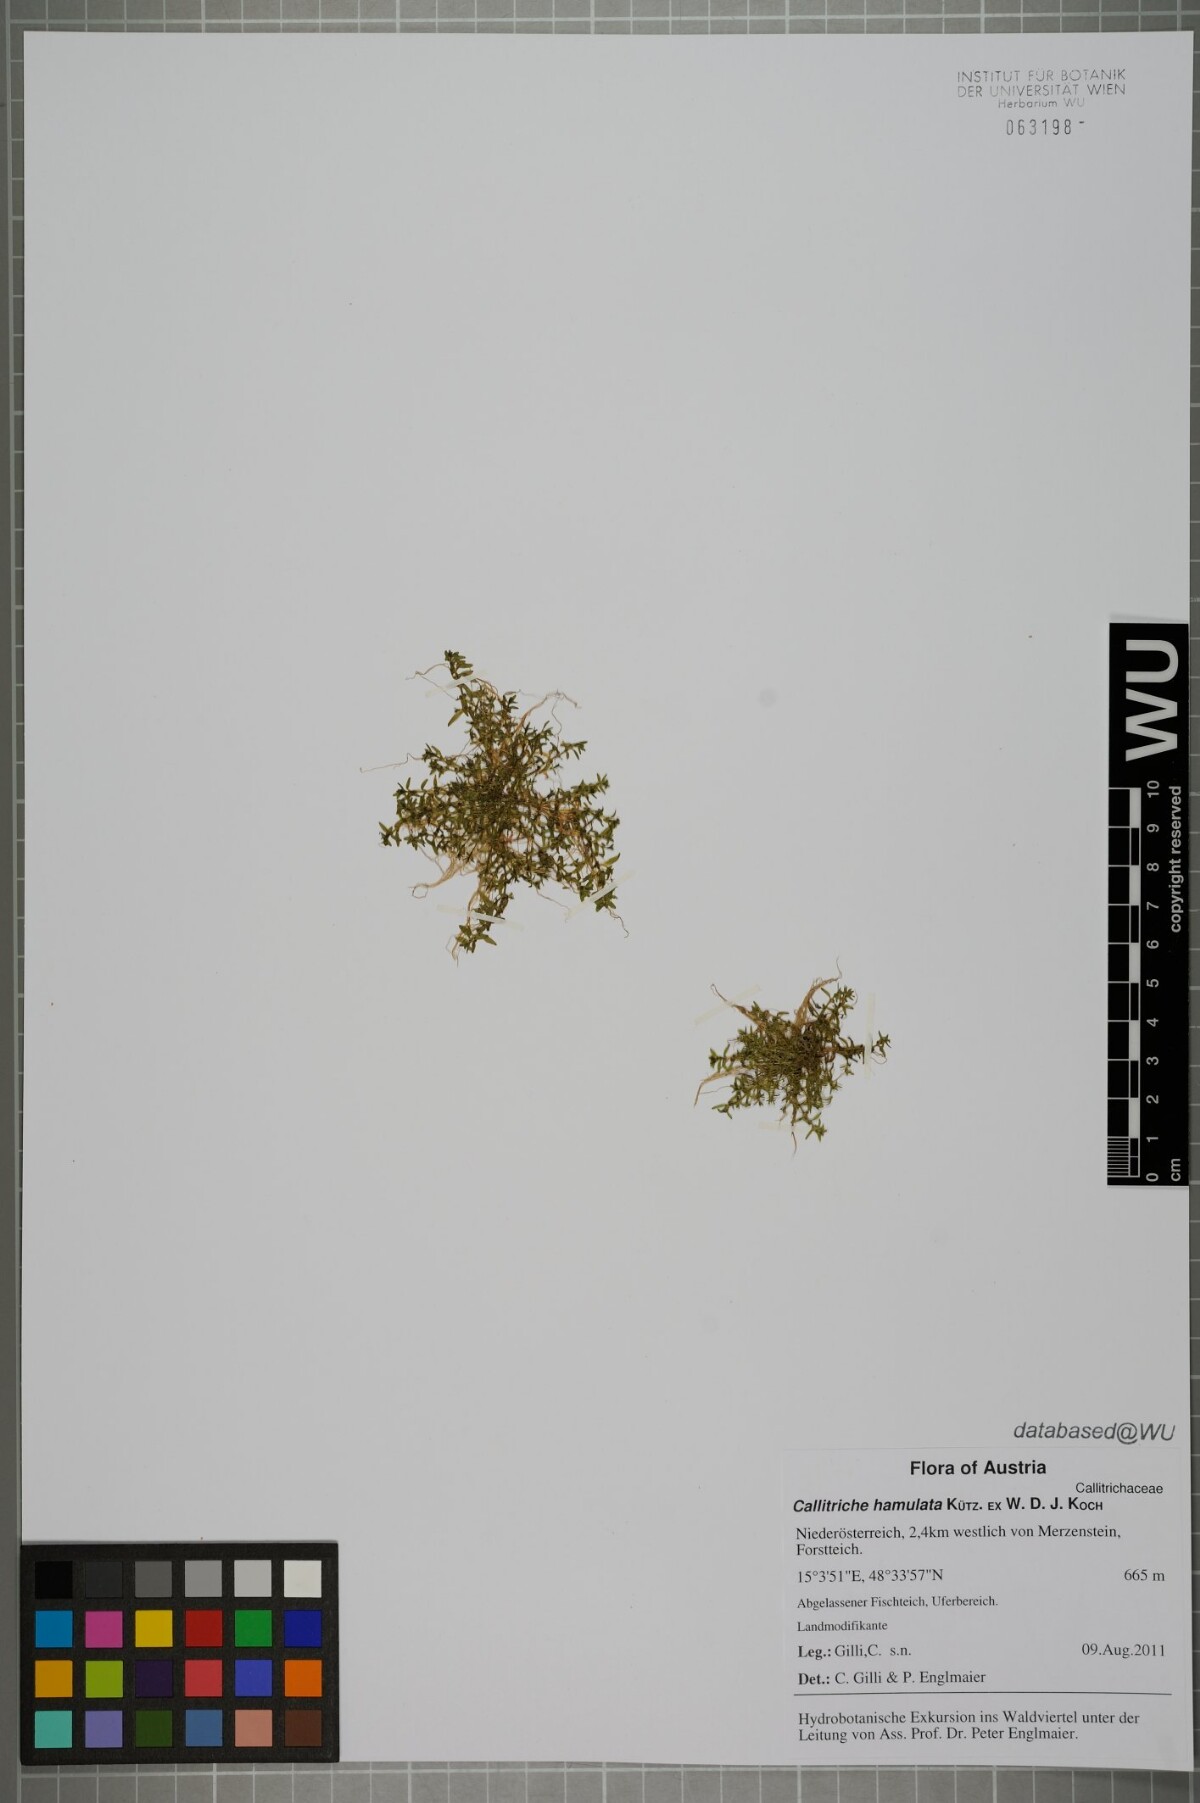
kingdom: Plantae
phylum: Tracheophyta
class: Magnoliopsida
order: Lamiales
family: Plantaginaceae
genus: Callitriche
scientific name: Callitriche palustris
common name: Spring water-starwort
